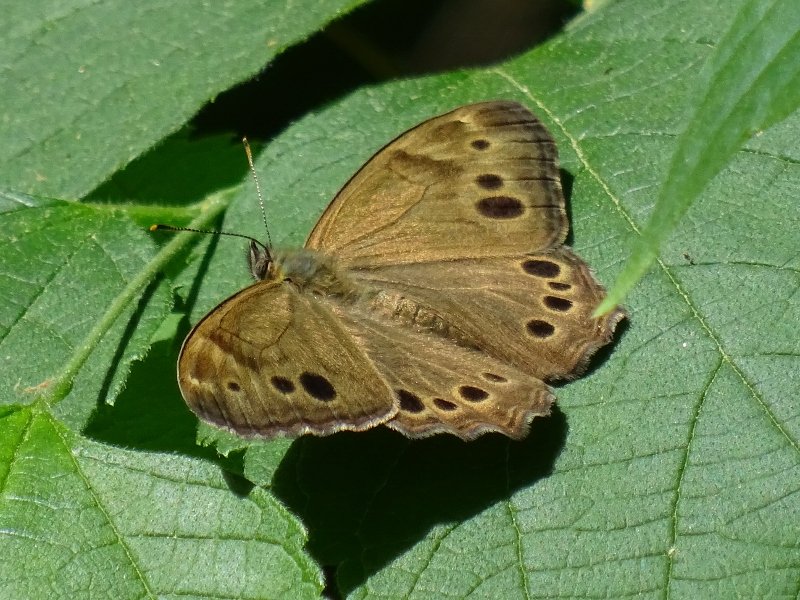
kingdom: Animalia
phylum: Arthropoda
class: Insecta
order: Lepidoptera
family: Nymphalidae
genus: Lethe
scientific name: Lethe anthedon
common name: Northern Pearly-Eye
